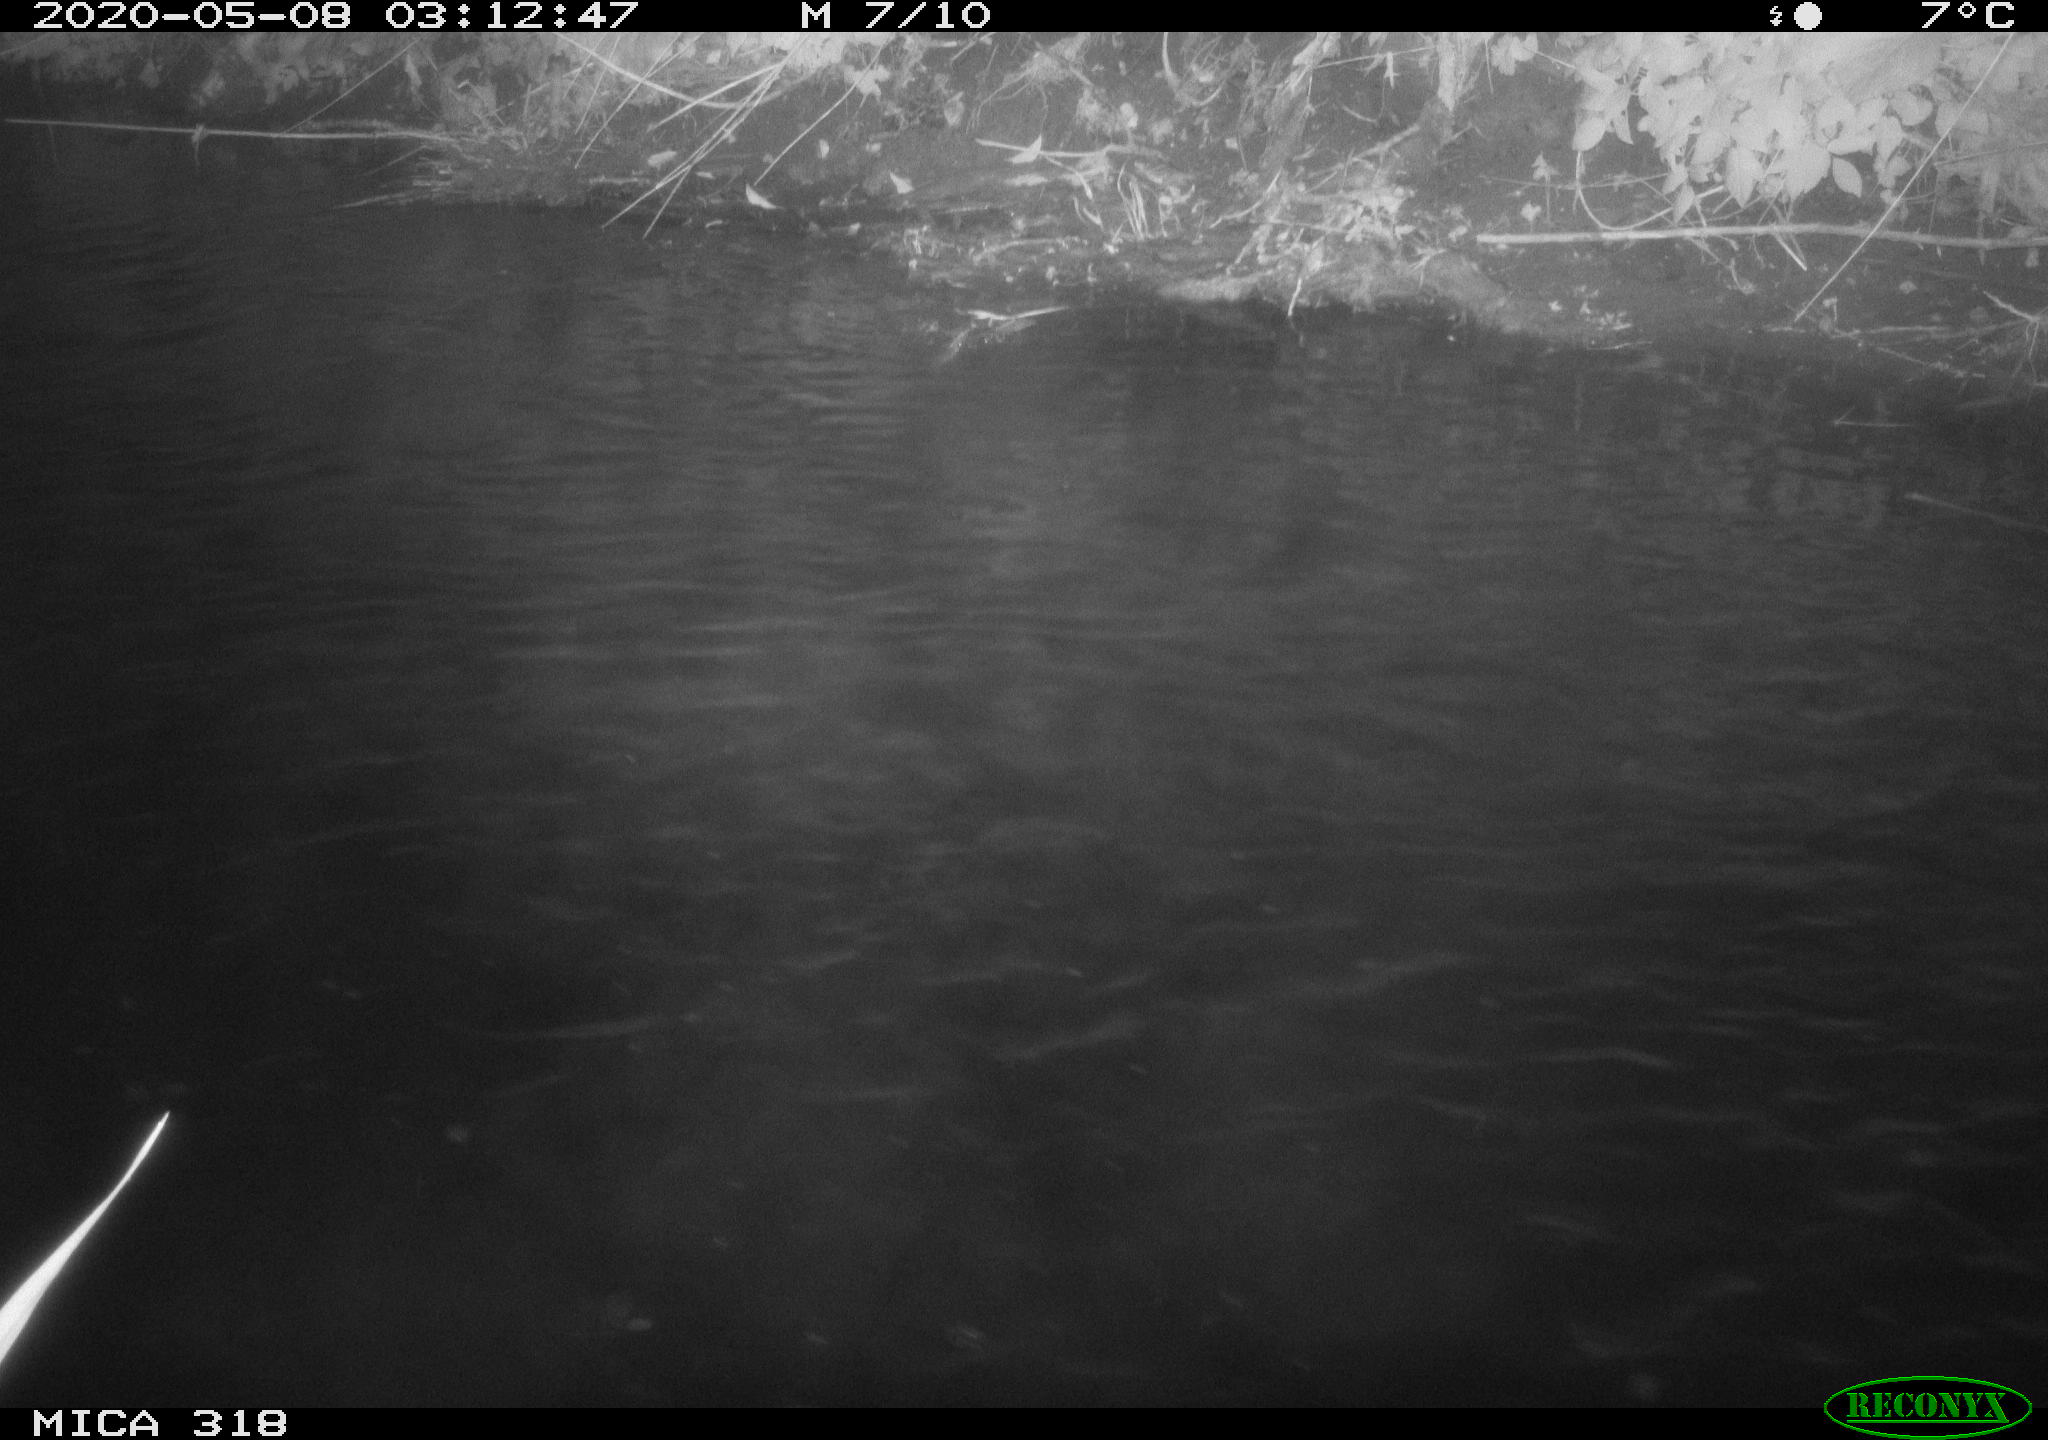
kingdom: Animalia
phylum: Chordata
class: Aves
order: Pelecaniformes
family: Ardeidae
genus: Ardea
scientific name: Ardea cinerea
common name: Grey heron
